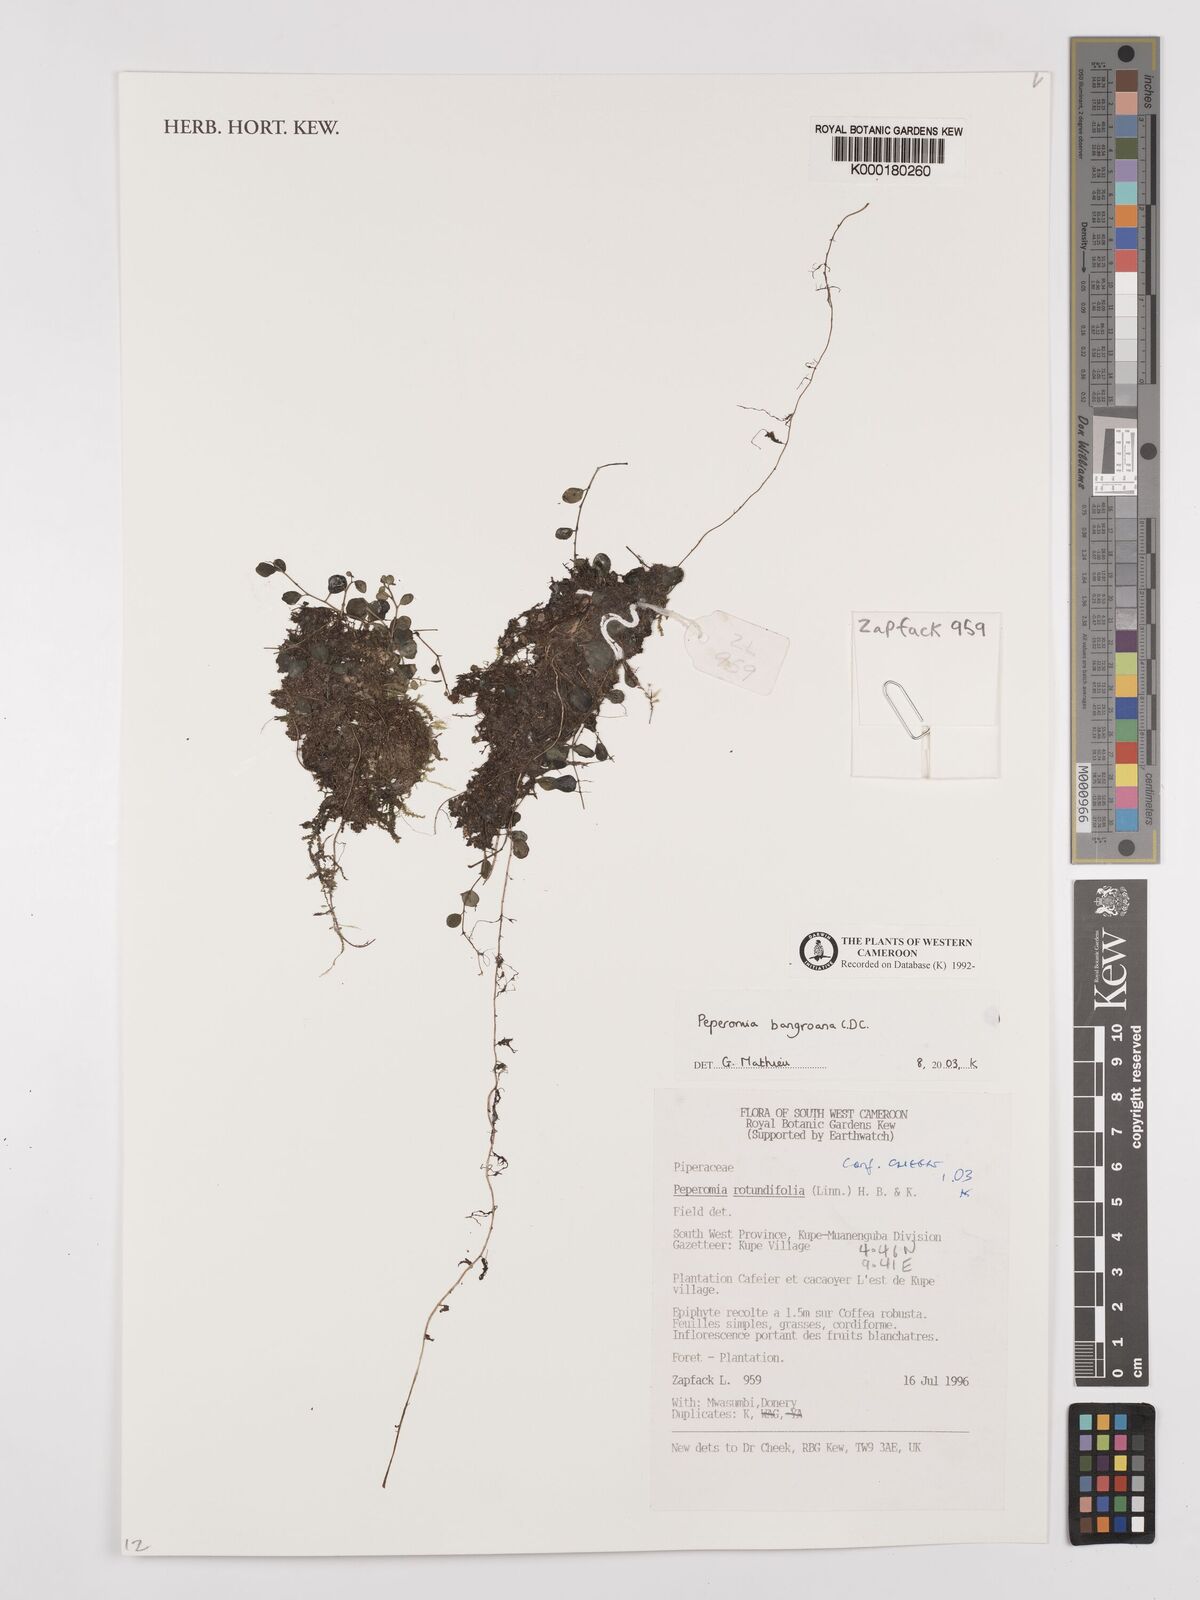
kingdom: Plantae
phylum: Tracheophyta
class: Magnoliopsida
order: Piperales
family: Piperaceae
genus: Peperomia
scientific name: Peperomia bangroana
